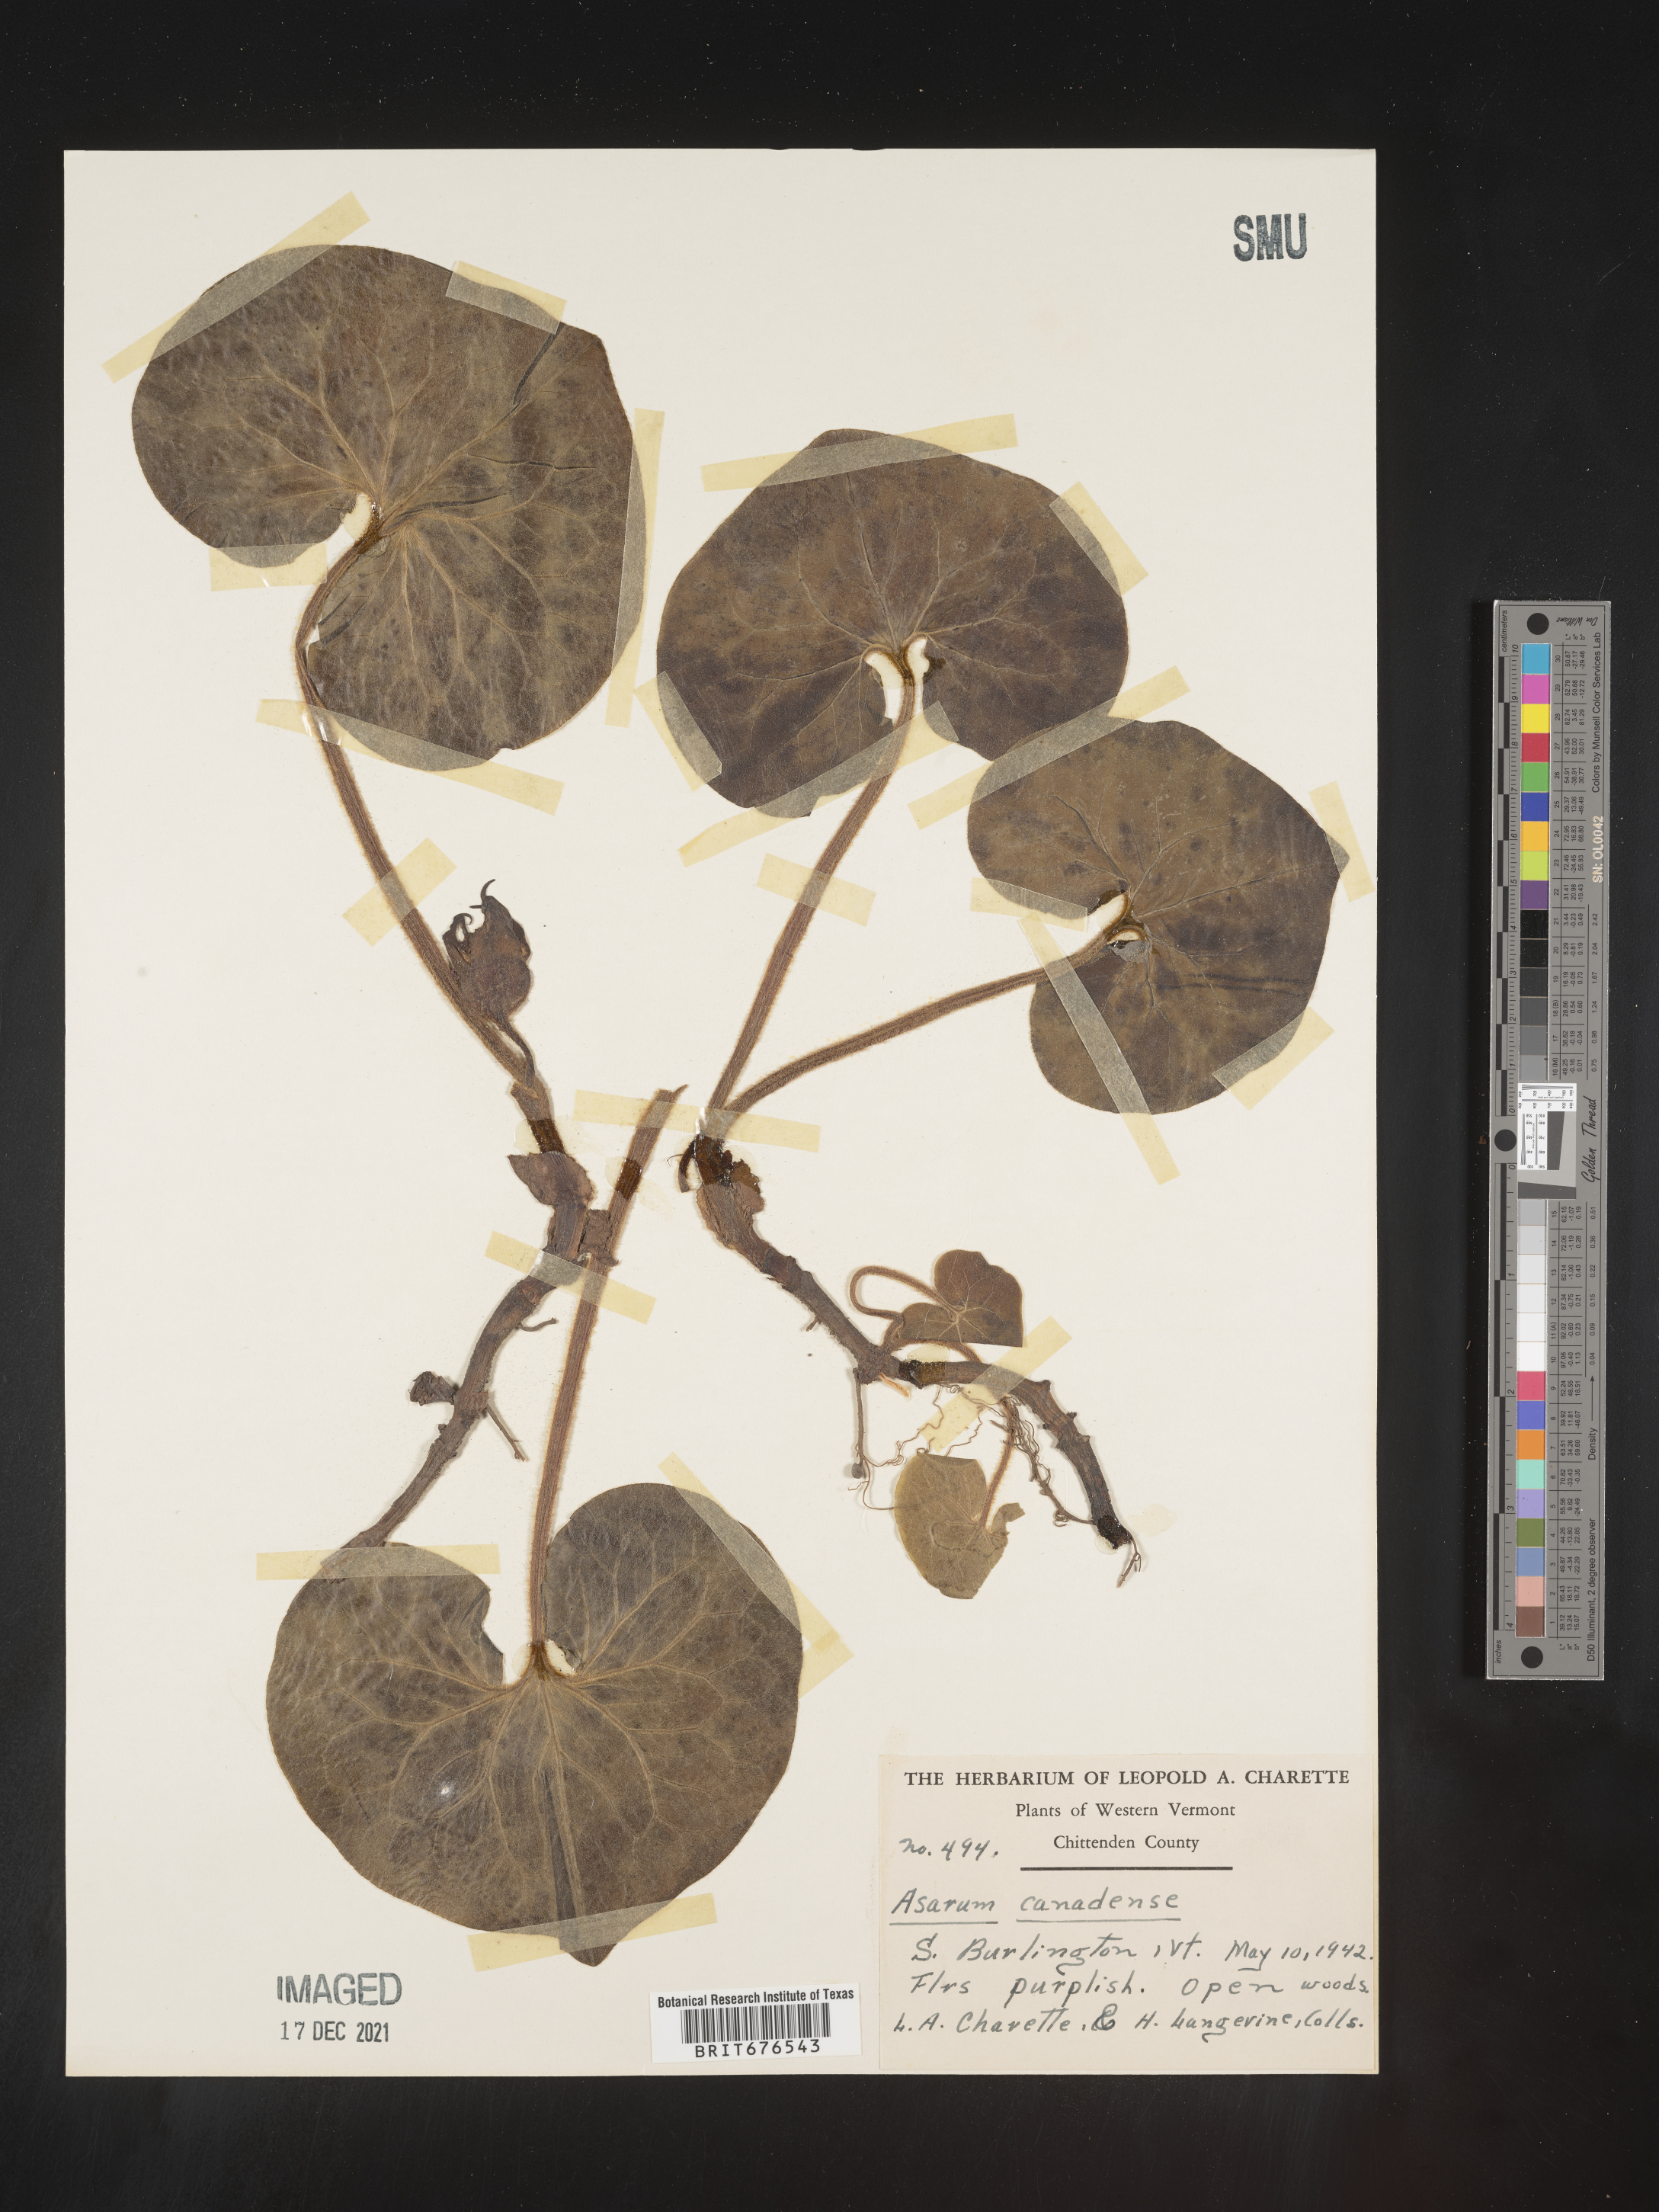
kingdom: Plantae
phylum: Tracheophyta
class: Magnoliopsida
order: Piperales
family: Aristolochiaceae
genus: Asarum
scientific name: Asarum canadense
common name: Wild ginger
